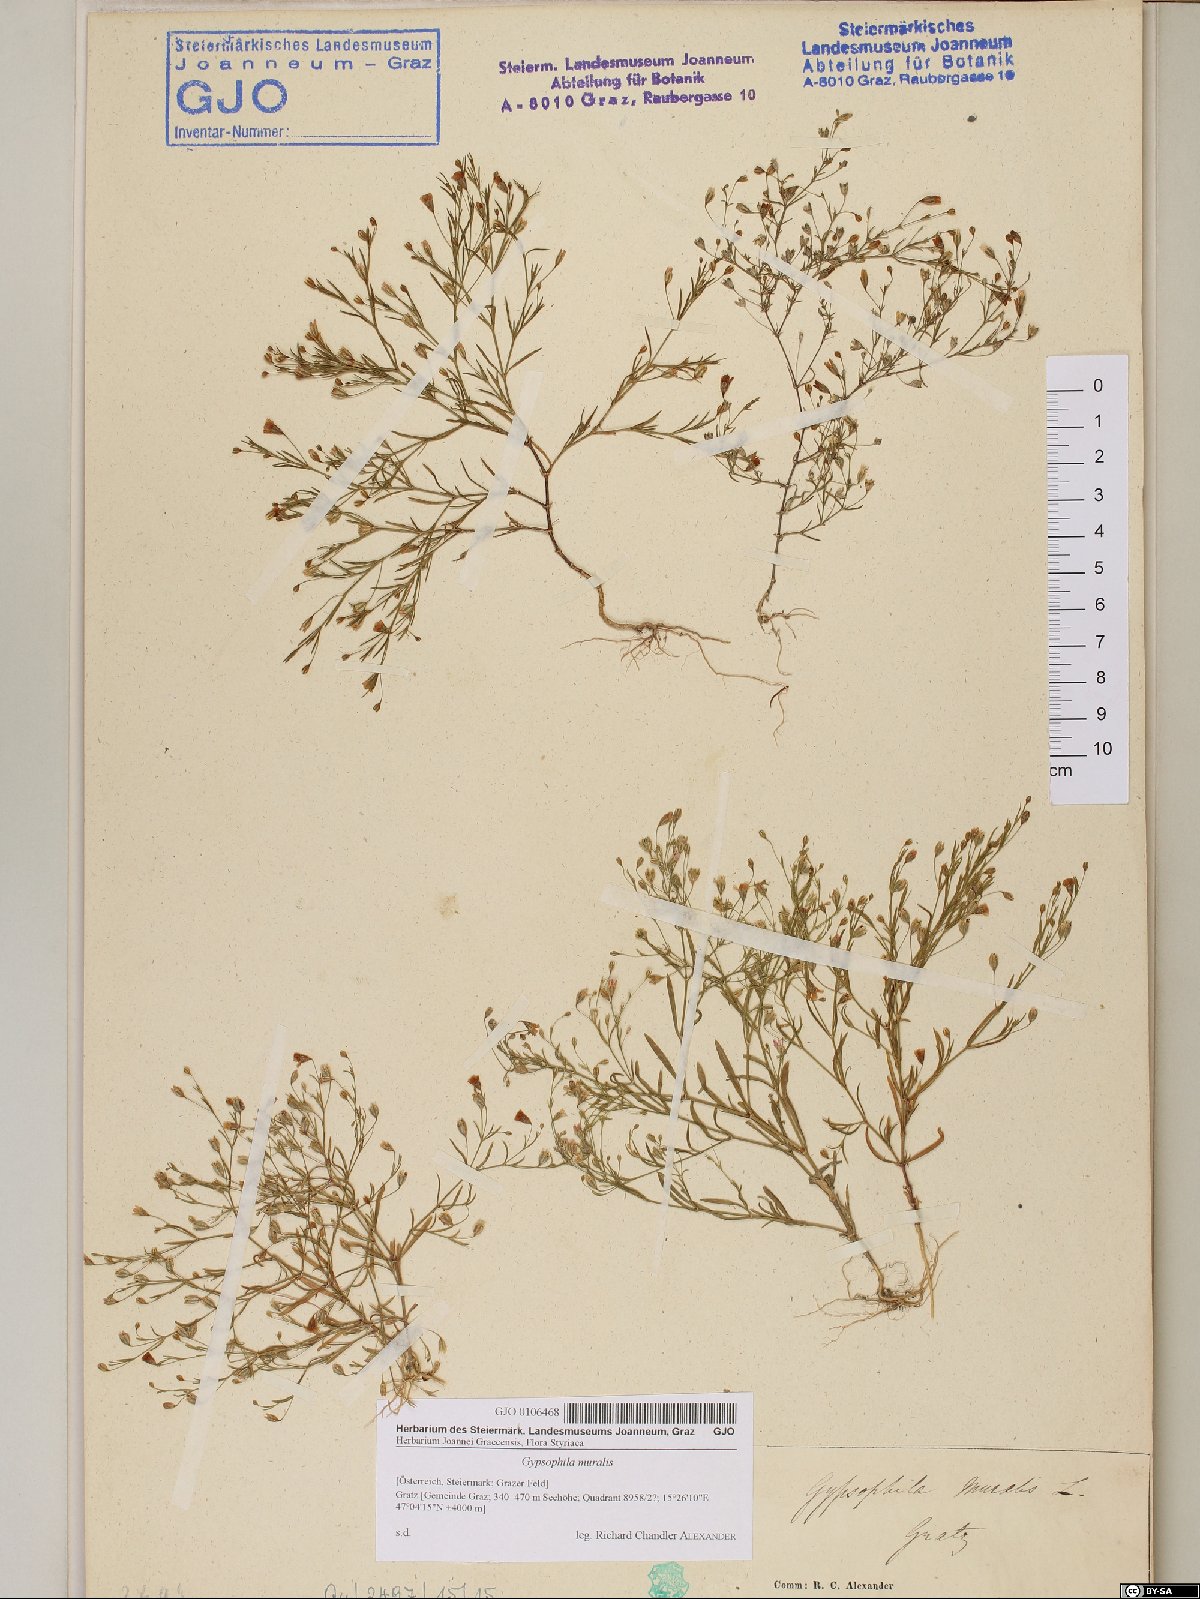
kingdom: Plantae
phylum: Tracheophyta
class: Magnoliopsida
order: Caryophyllales
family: Caryophyllaceae
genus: Psammophiliella
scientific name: Psammophiliella muralis
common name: Cushion baby's-breath
